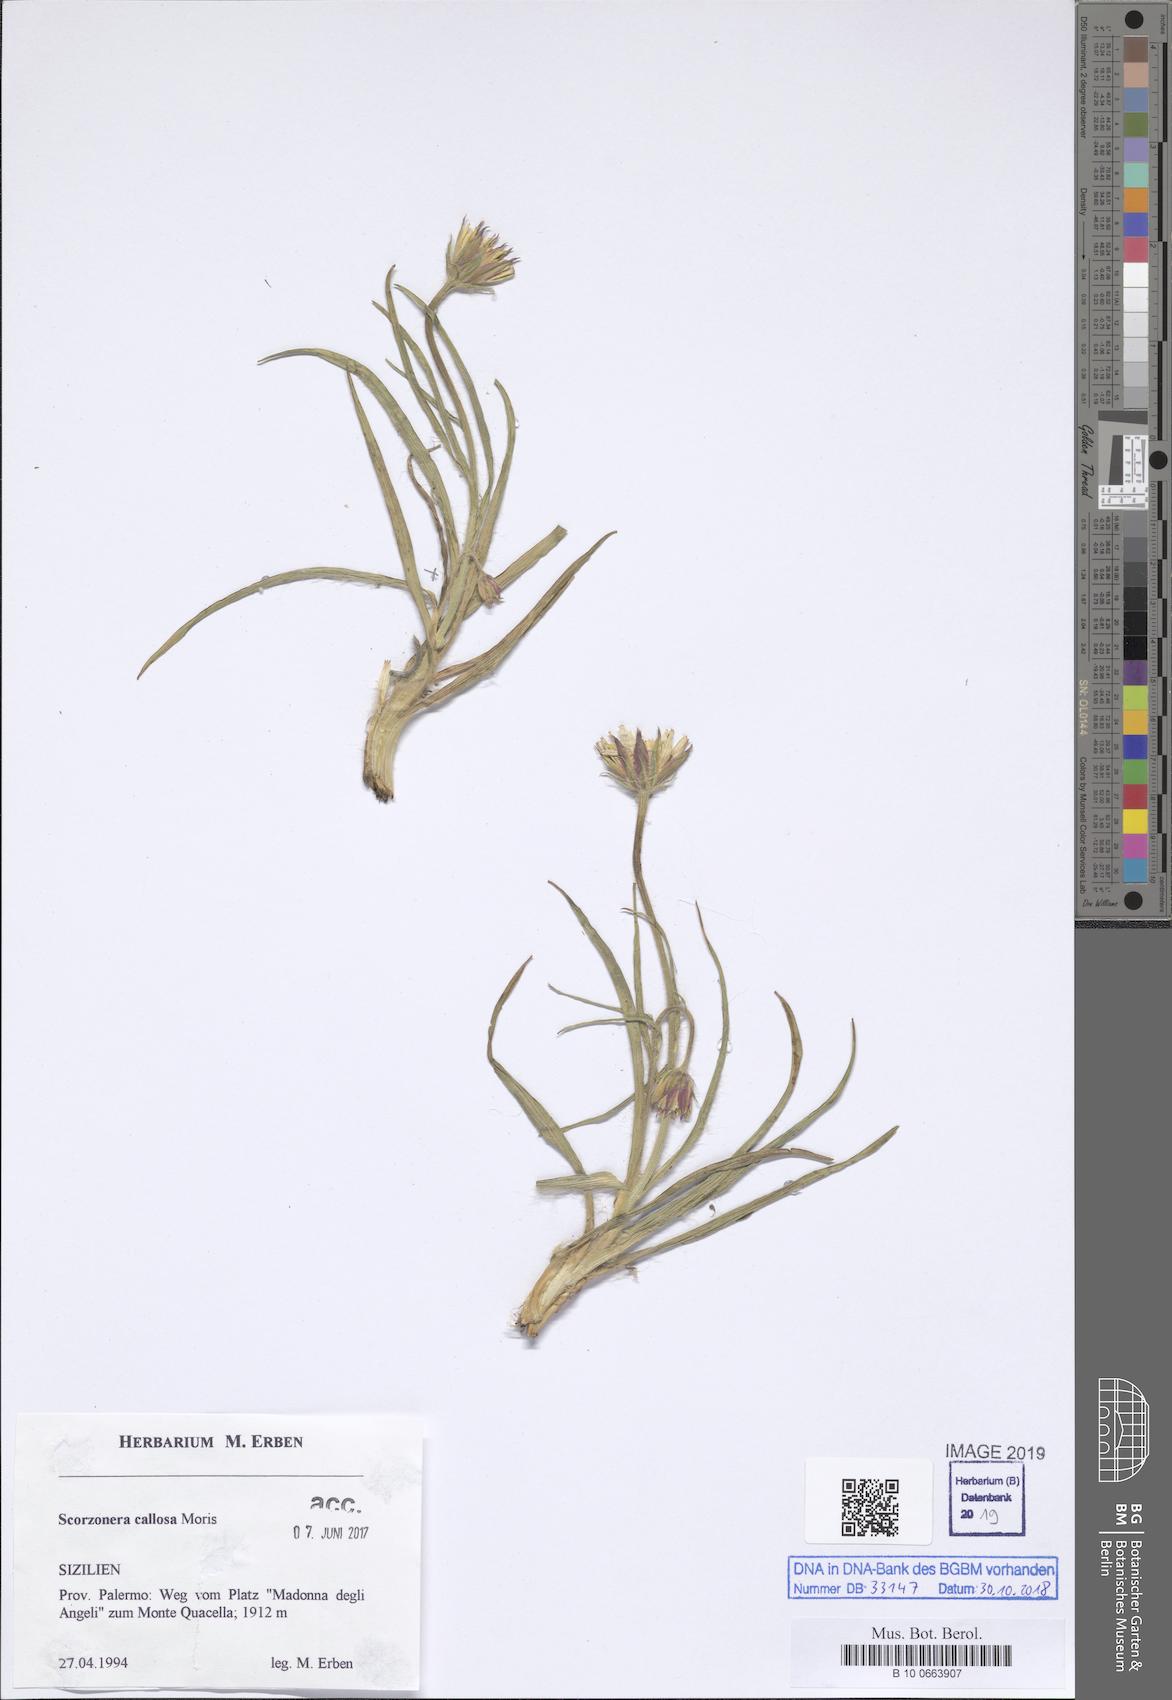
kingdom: Plantae
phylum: Tracheophyta
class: Magnoliopsida
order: Asterales
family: Asteraceae
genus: Gelasia
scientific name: Gelasia callosa
